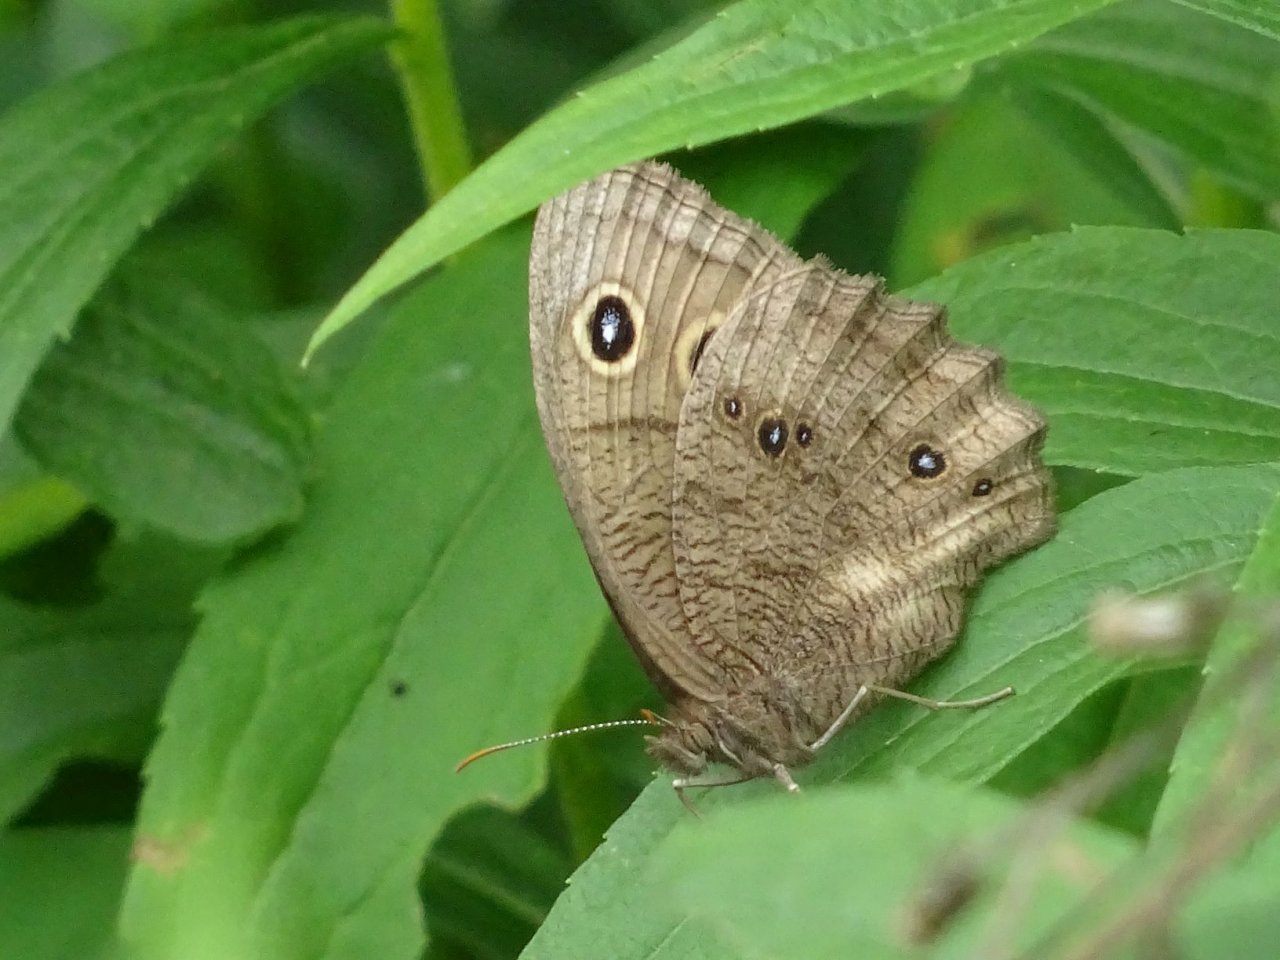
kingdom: Animalia
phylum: Arthropoda
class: Insecta
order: Lepidoptera
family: Nymphalidae
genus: Cercyonis
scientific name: Cercyonis pegala
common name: Common Wood-Nymph
